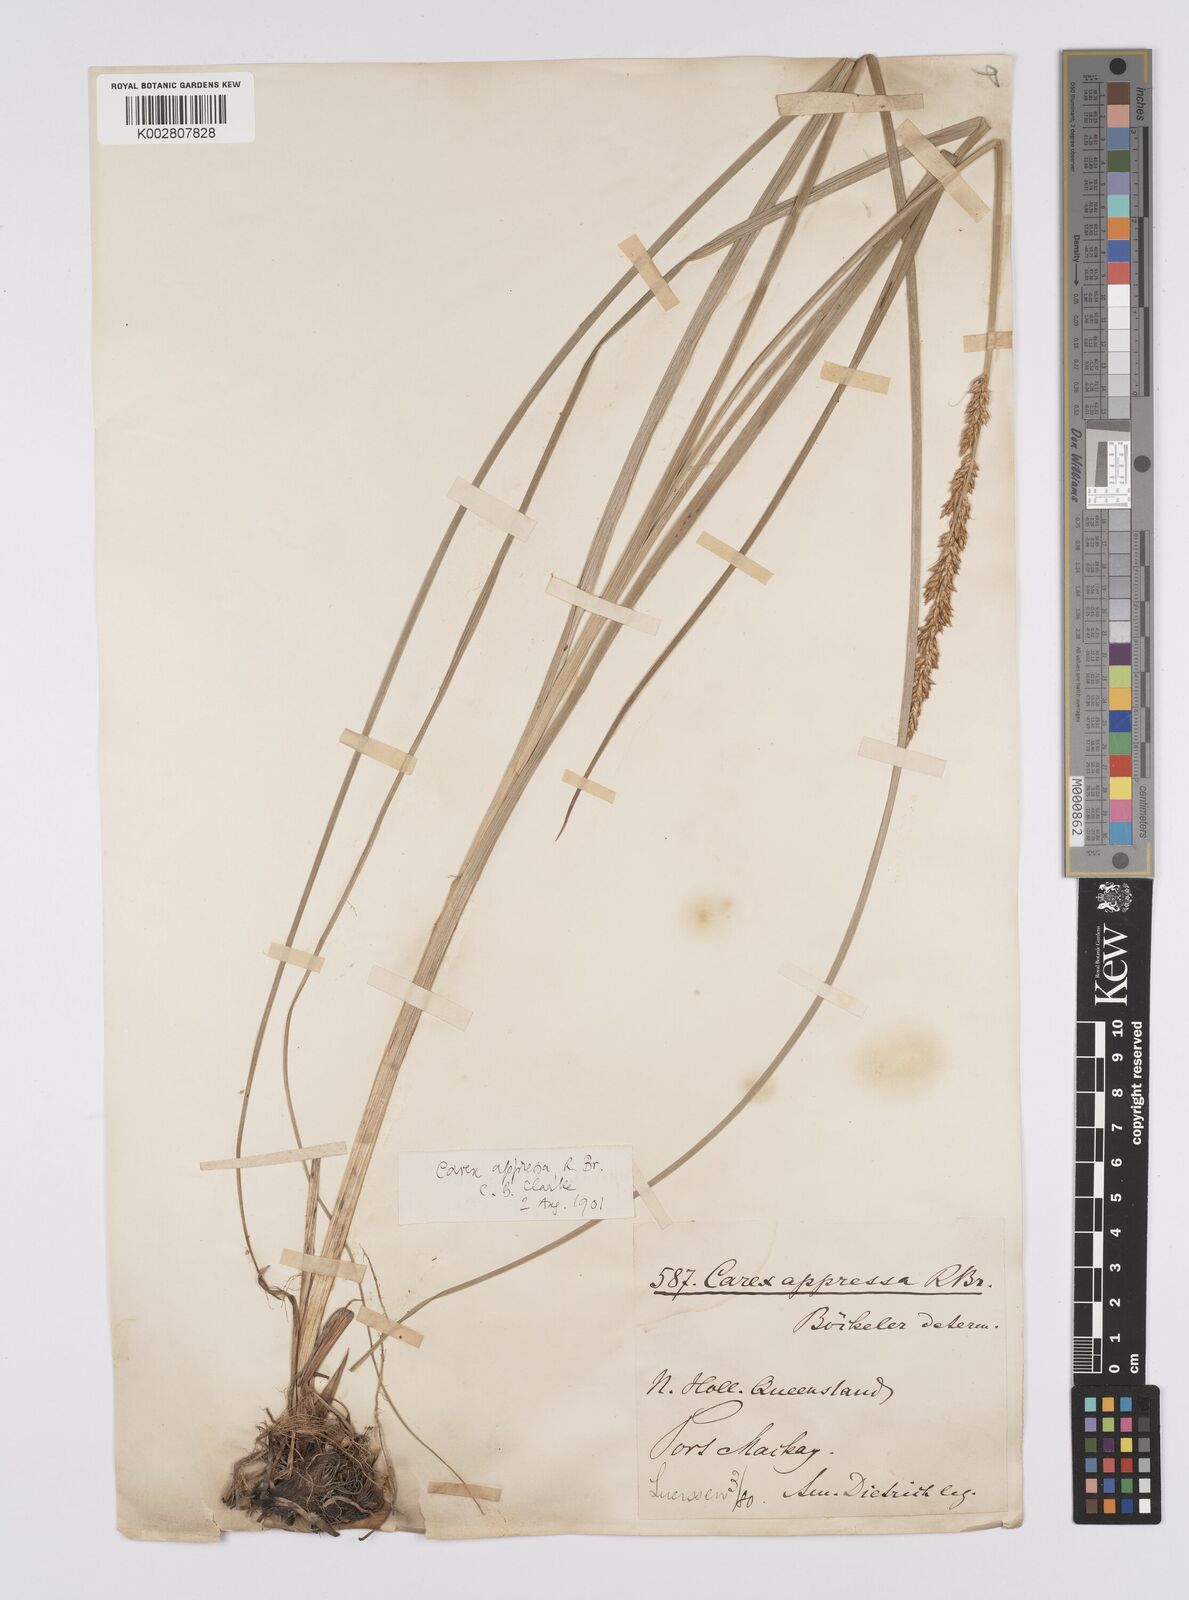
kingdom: Plantae
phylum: Tracheophyta
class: Liliopsida
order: Poales
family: Cyperaceae
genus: Carex
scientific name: Carex appressa
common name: Tussock sedge
